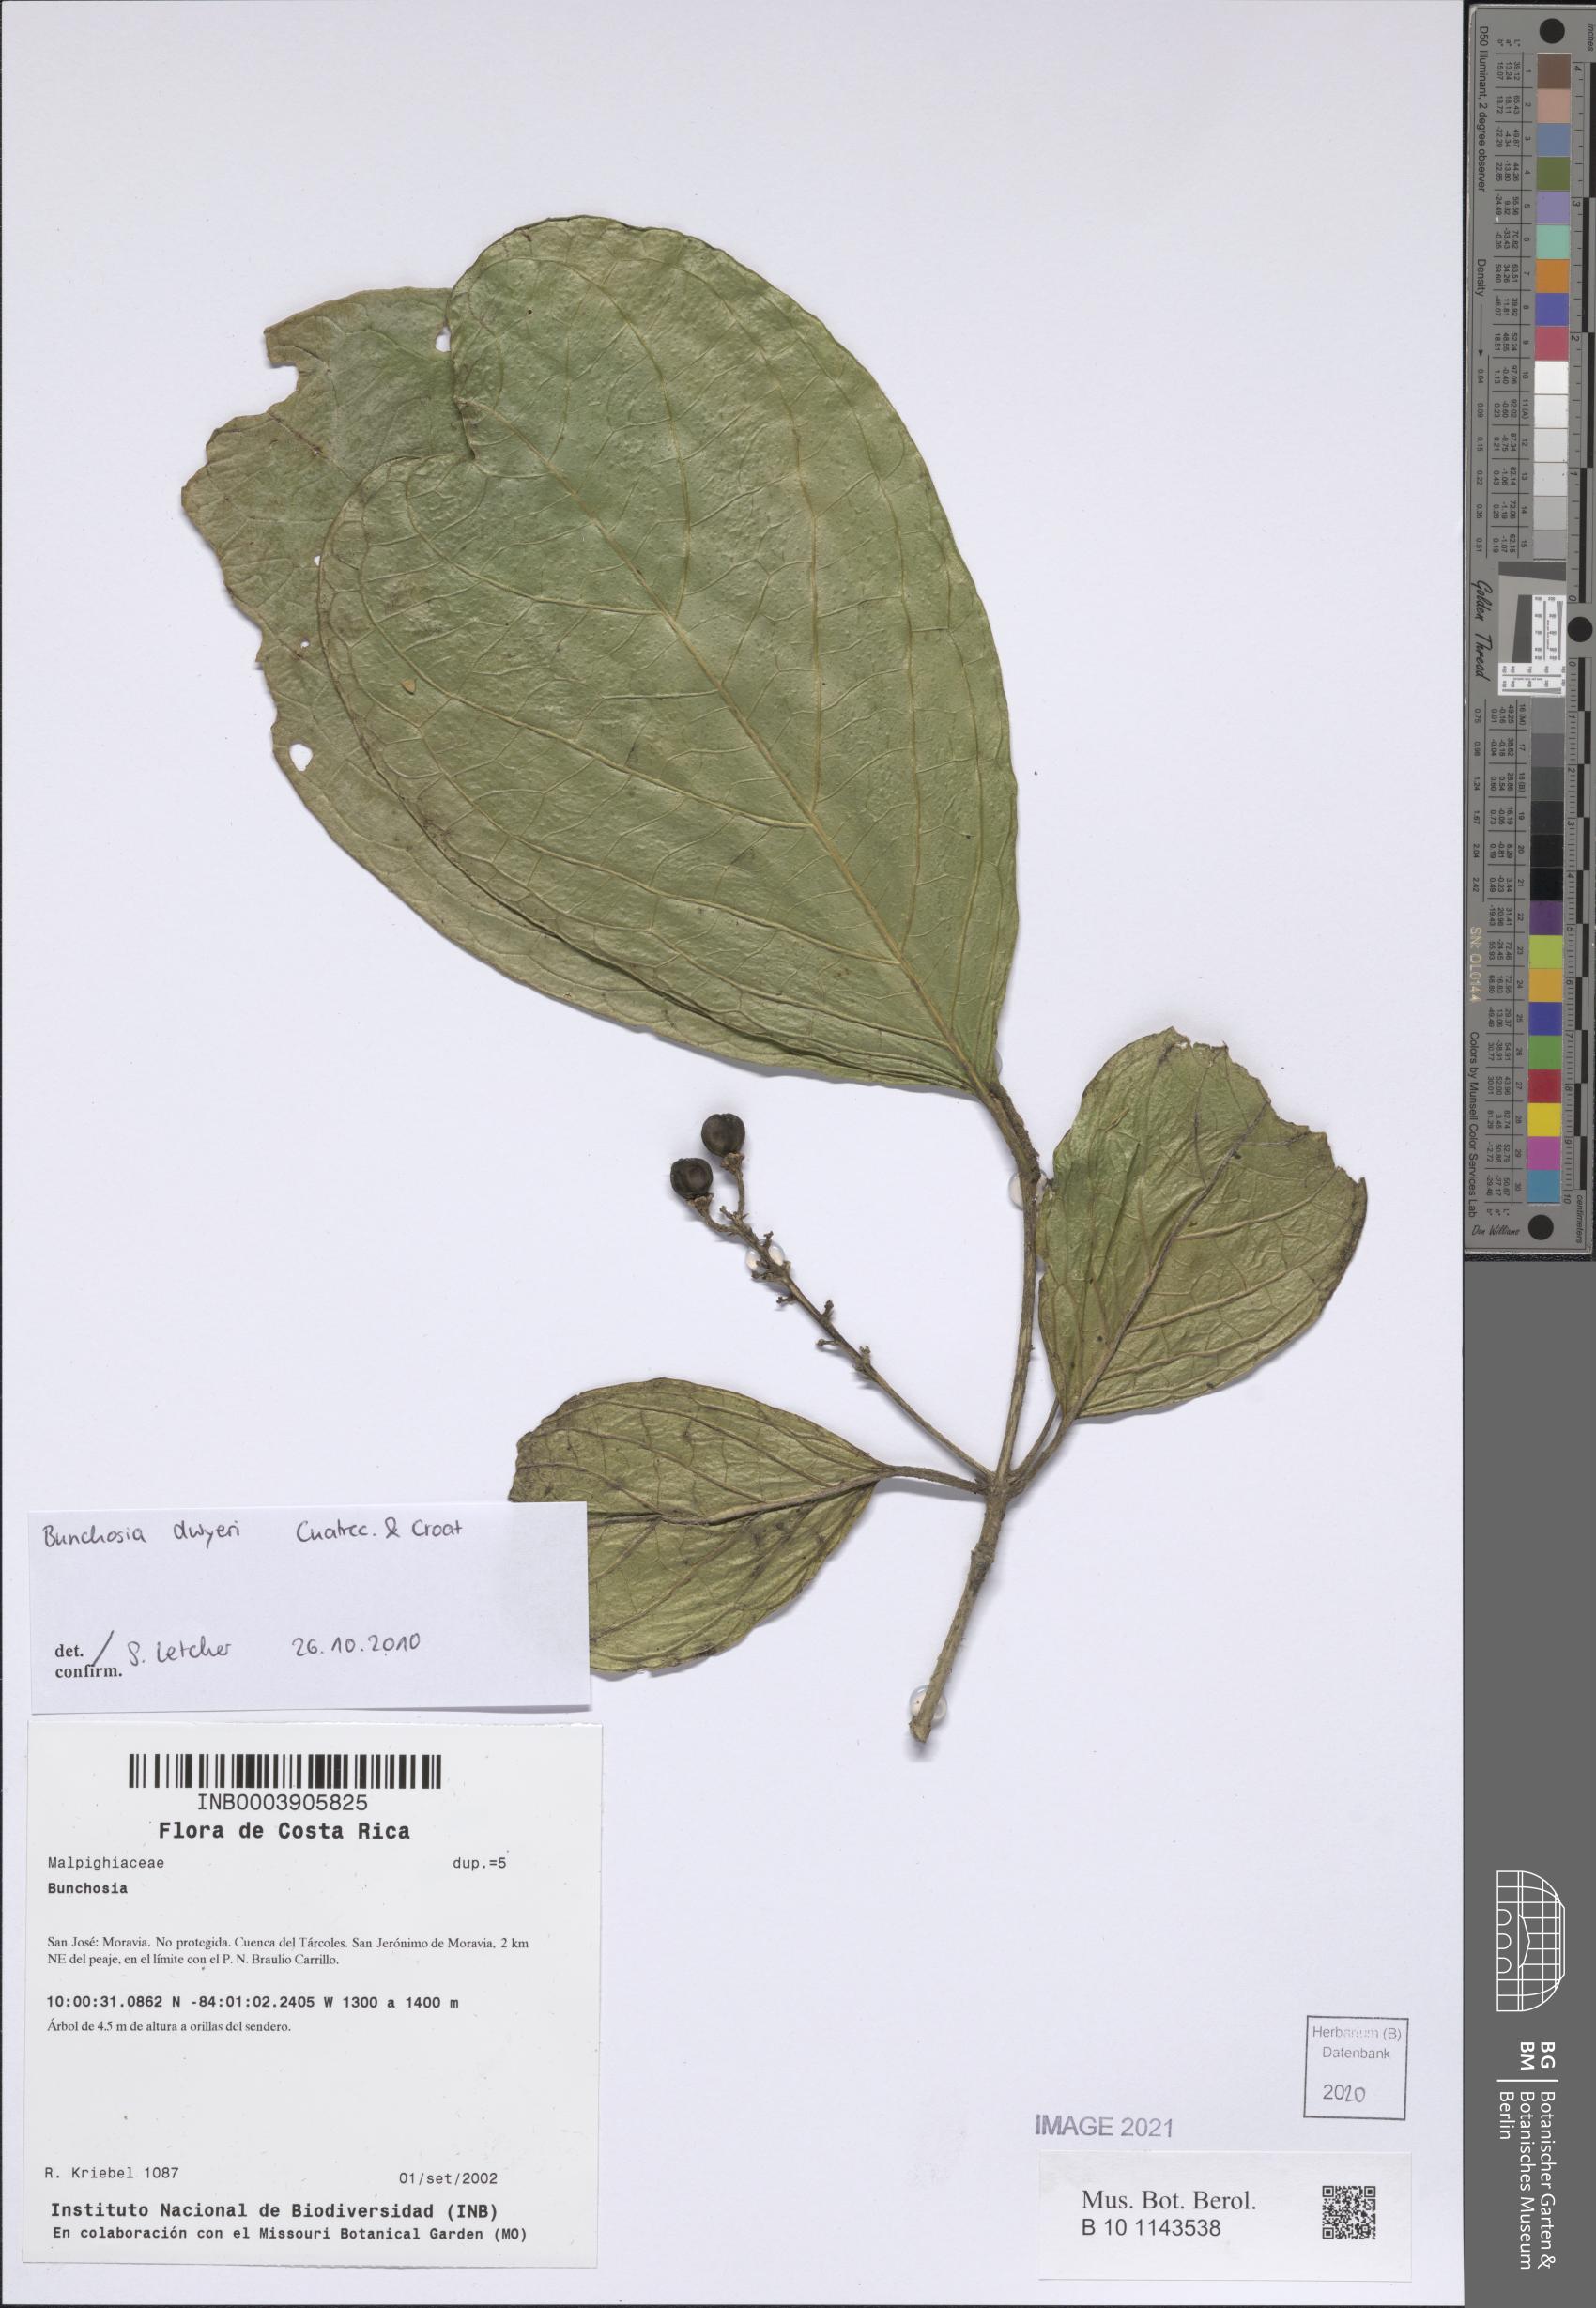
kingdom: Plantae
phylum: Tracheophyta
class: Magnoliopsida
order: Malpighiales
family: Malpighiaceae
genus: Bunchosia
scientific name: Bunchosia dwyeri
